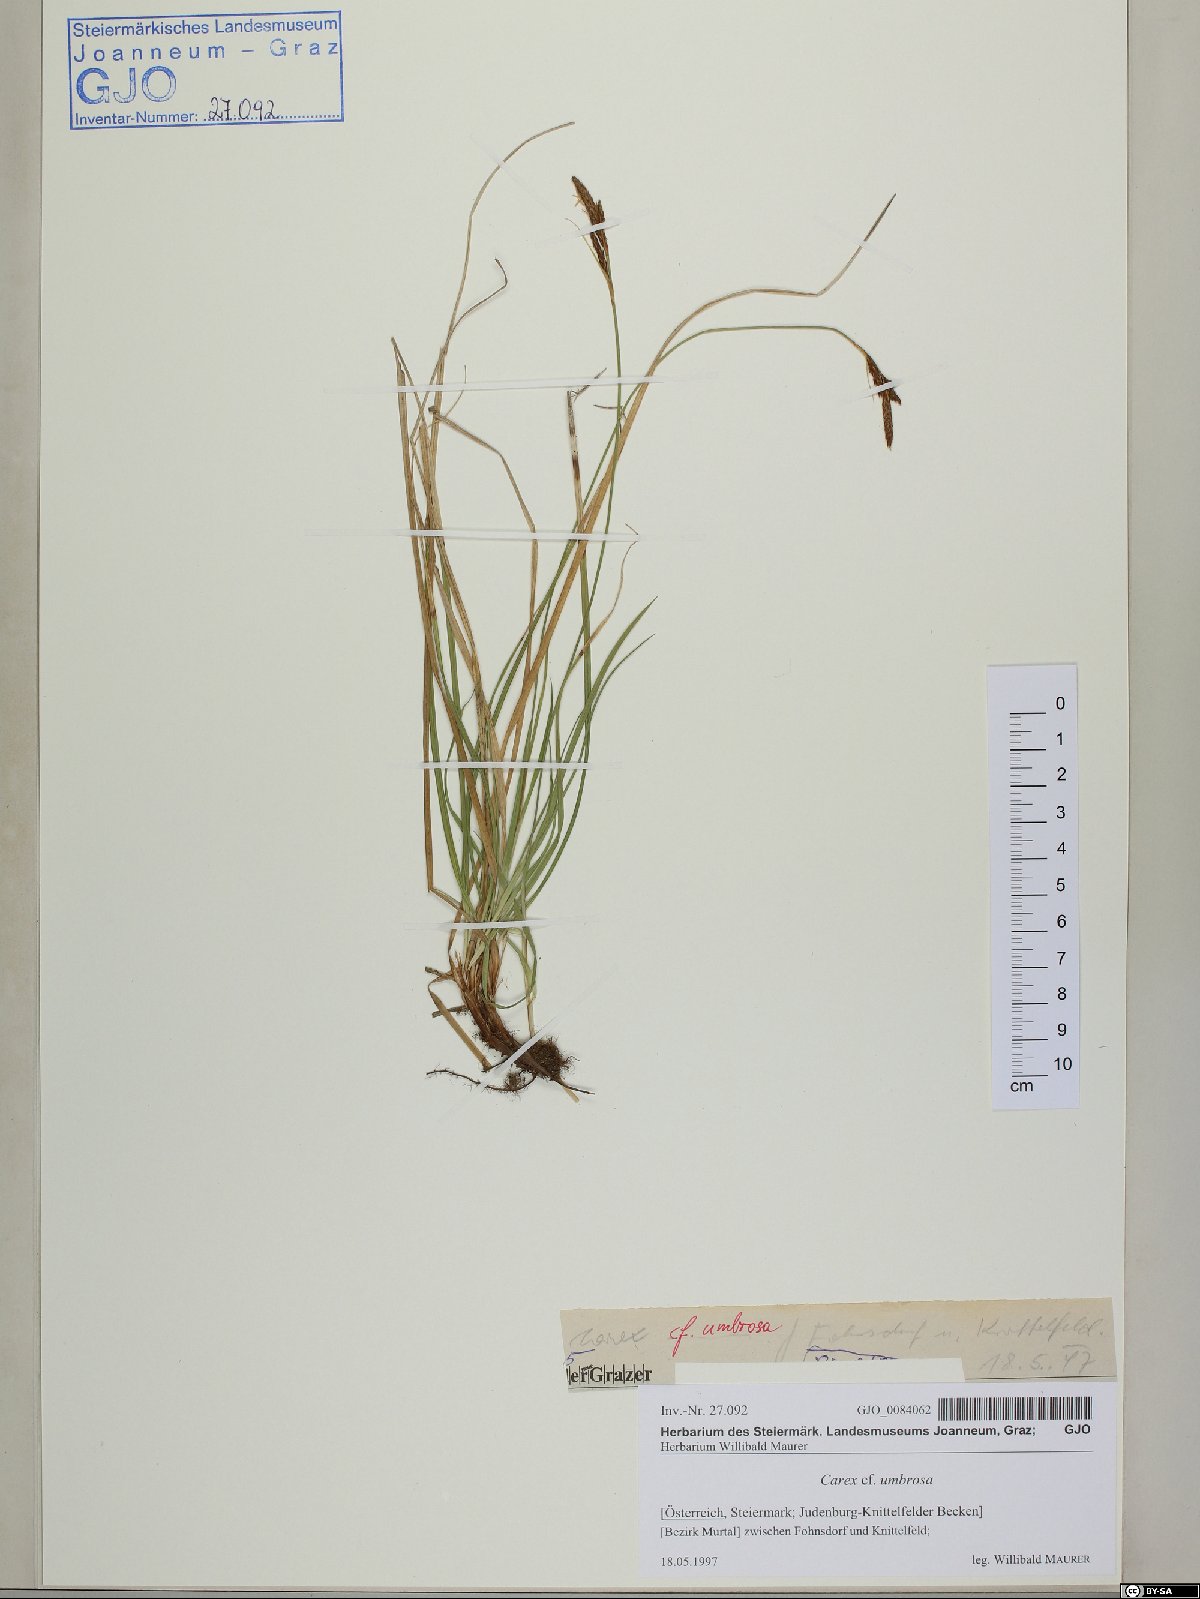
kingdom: Plantae
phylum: Tracheophyta
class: Liliopsida
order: Poales
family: Cyperaceae
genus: Carex
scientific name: Carex umbrosa
